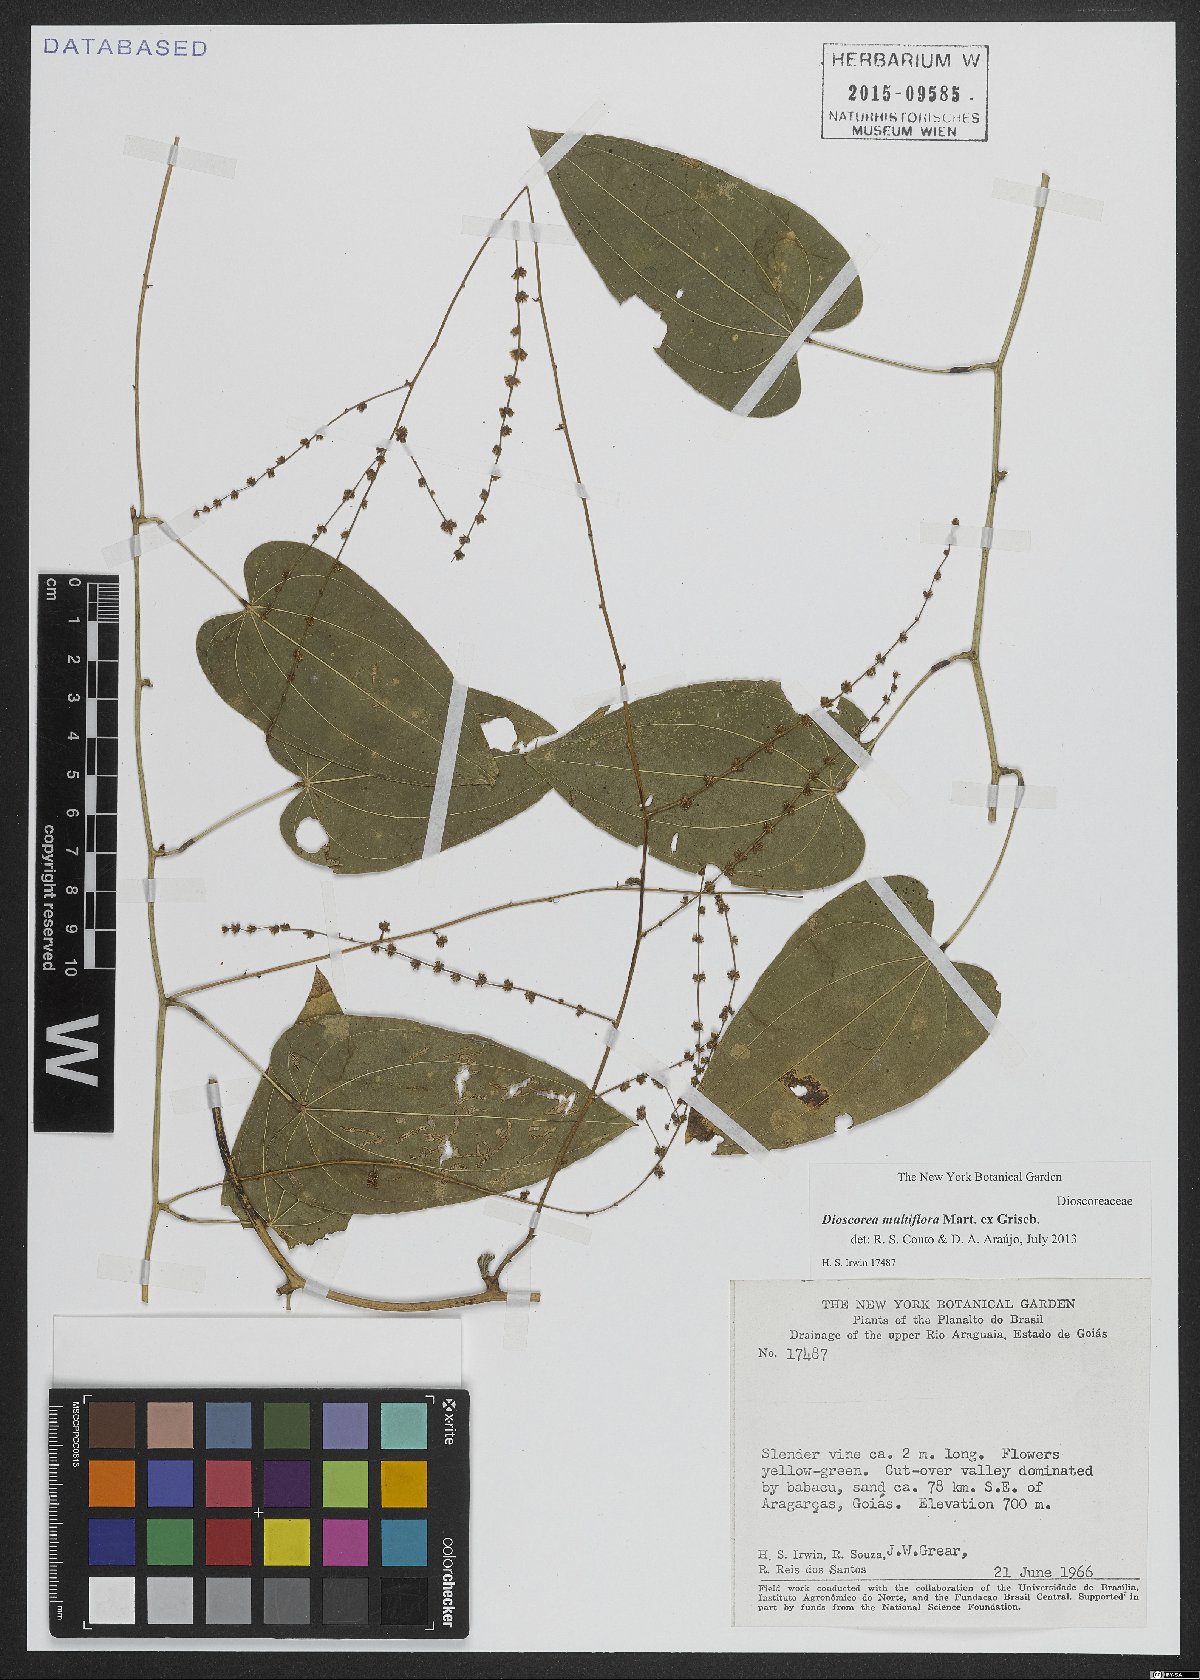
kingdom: Plantae
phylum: Tracheophyta
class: Liliopsida
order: Dioscoreales
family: Dioscoreaceae
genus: Dioscorea
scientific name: Dioscorea polygonoides
